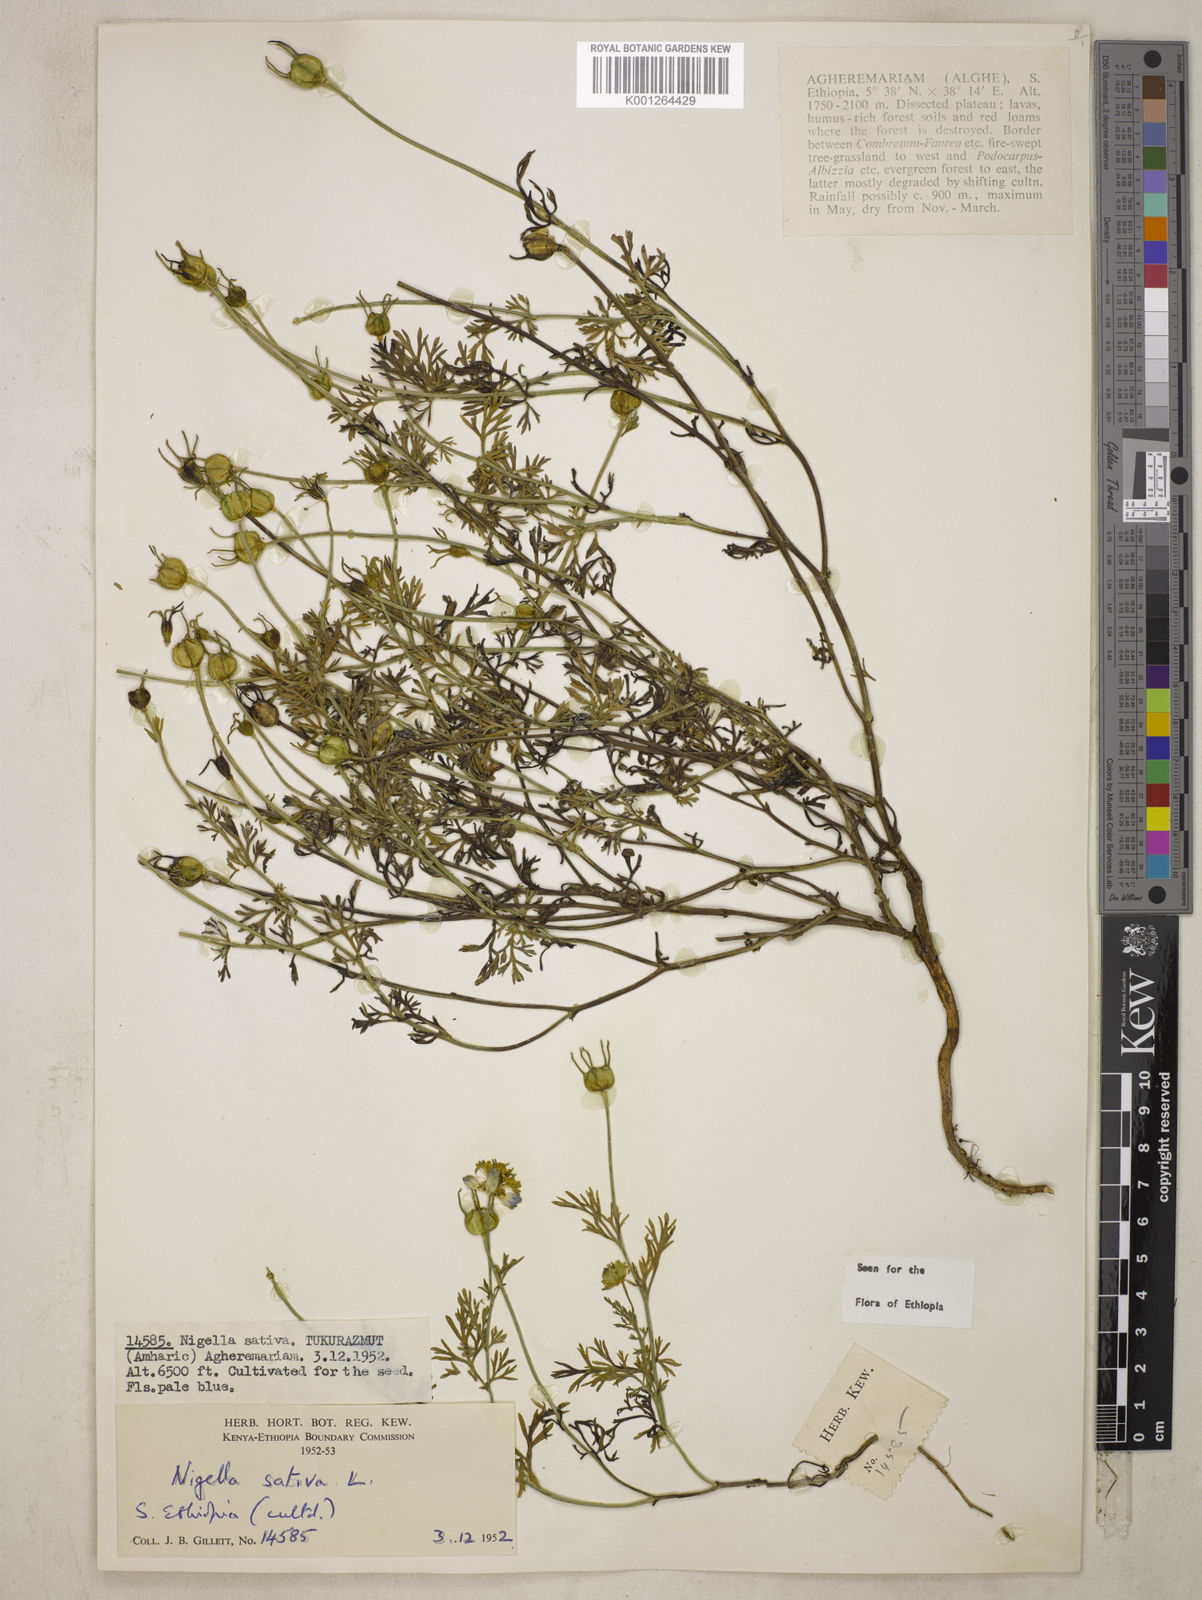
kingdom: Plantae
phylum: Tracheophyta
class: Magnoliopsida
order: Ranunculales
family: Ranunculaceae
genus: Nigella
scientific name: Nigella sativa
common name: Black-cumin
